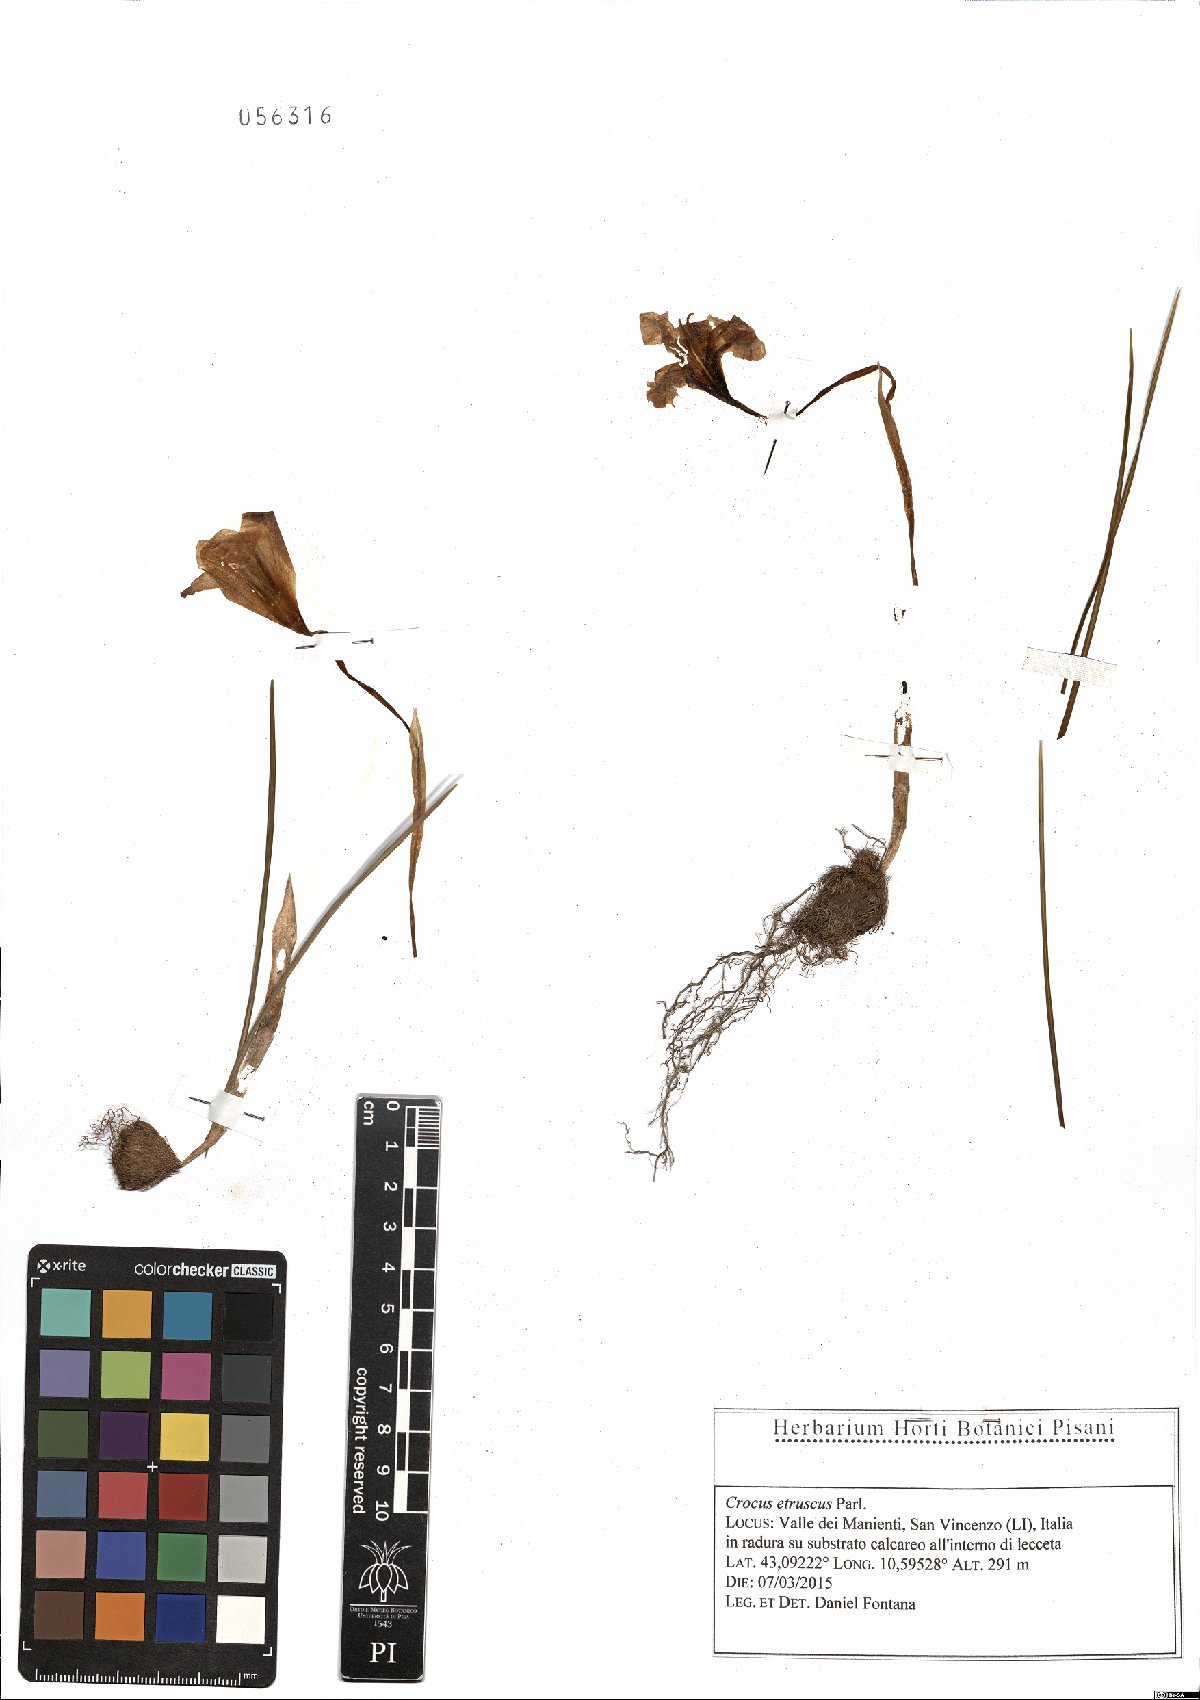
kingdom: Plantae
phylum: Tracheophyta
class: Liliopsida
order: Asparagales
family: Iridaceae
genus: Crocus
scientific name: Crocus etruscus
